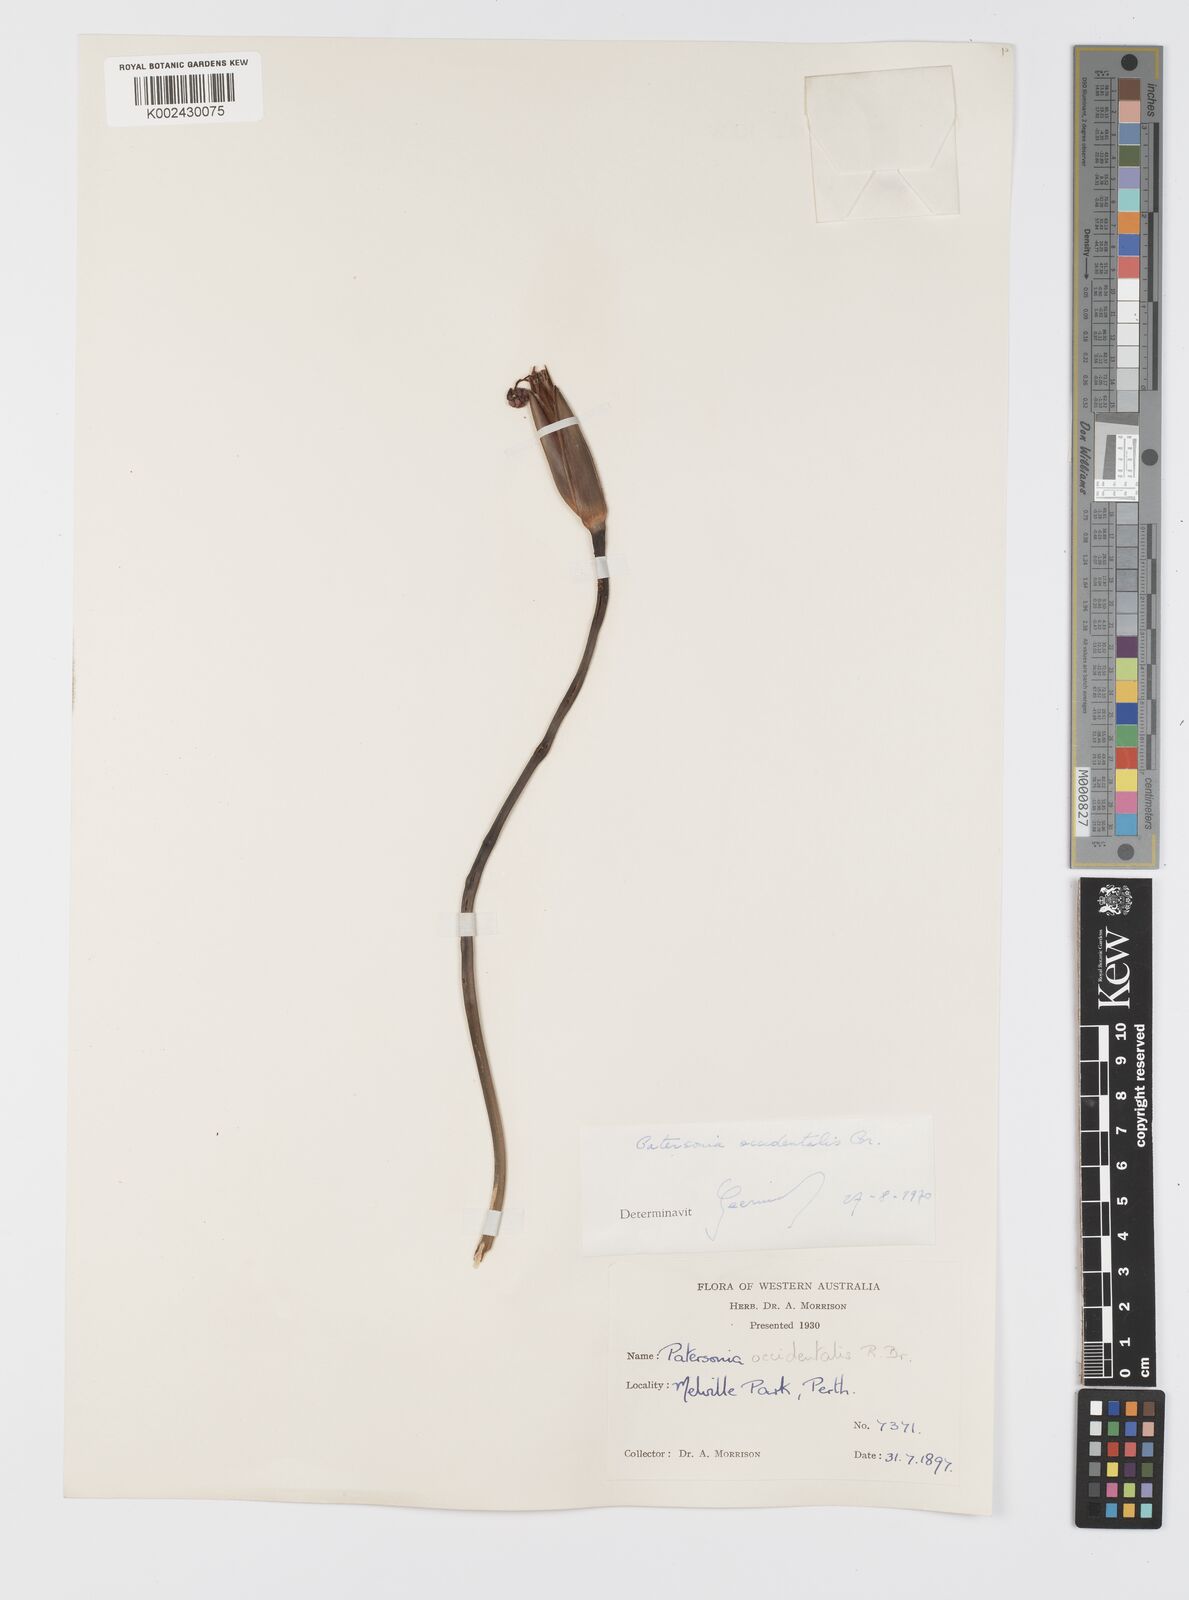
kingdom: Plantae
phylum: Tracheophyta
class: Liliopsida
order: Asparagales
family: Iridaceae
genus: Patersonia
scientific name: Patersonia occidentalis
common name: Long purple-flag
